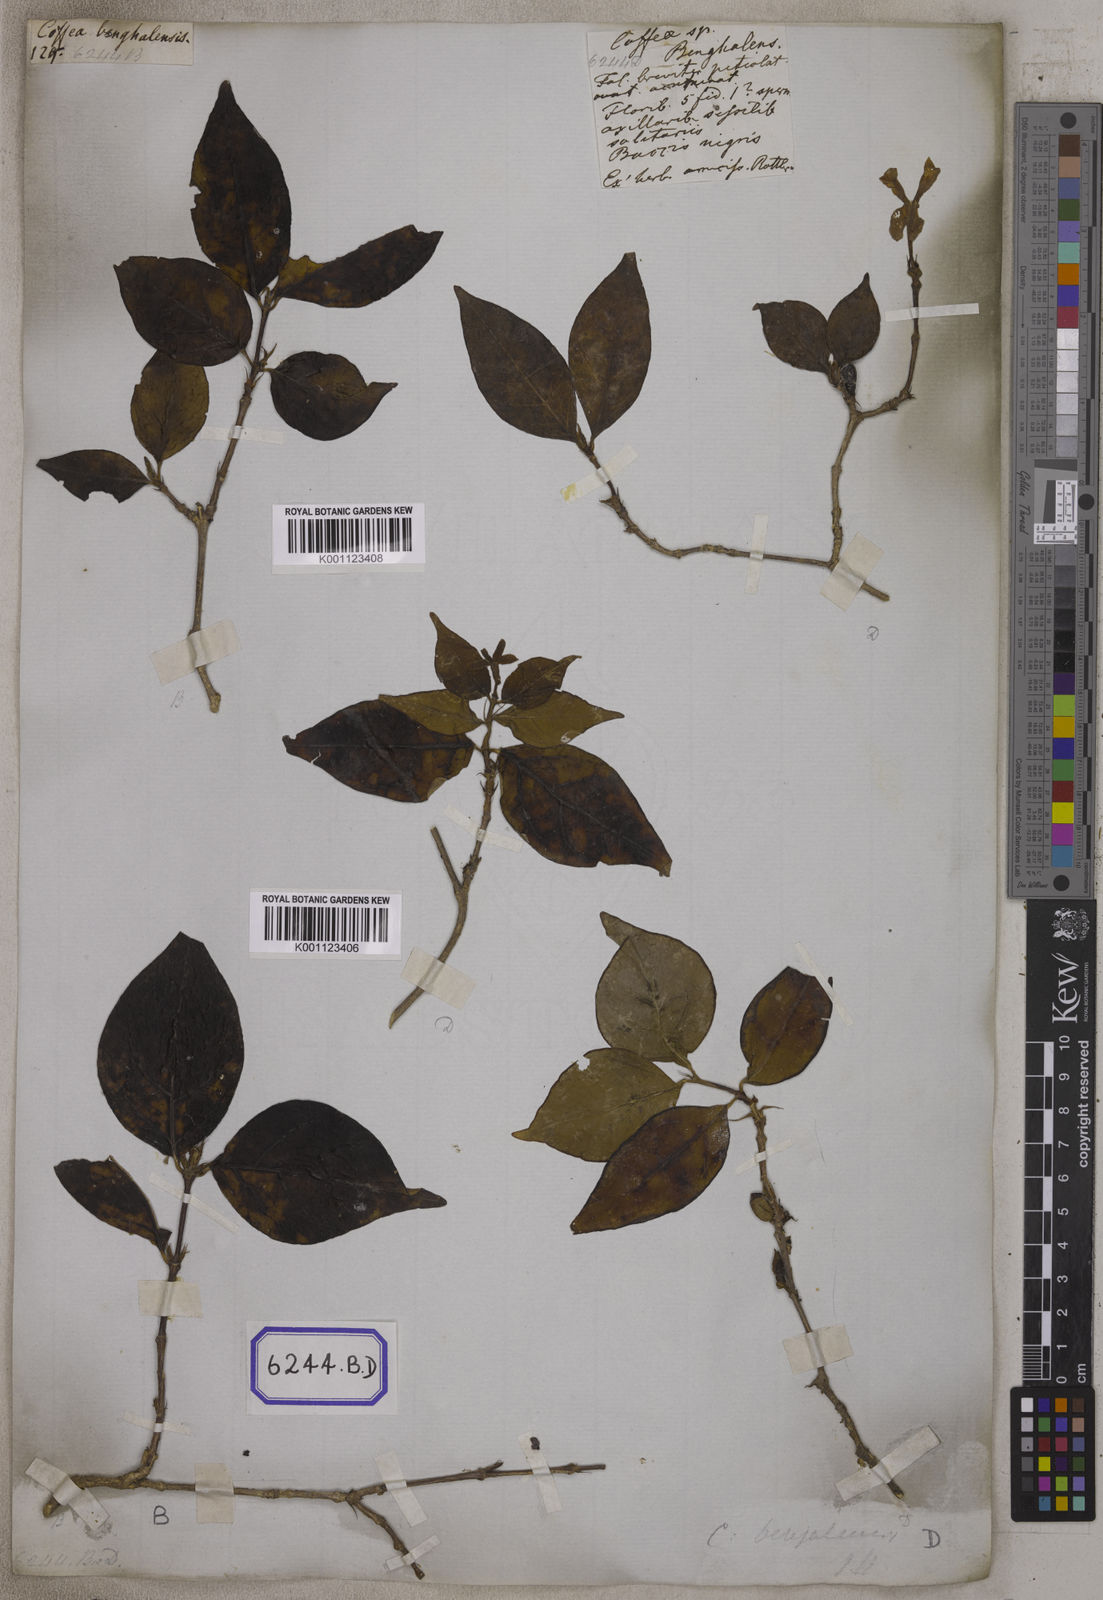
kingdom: Plantae
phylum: Tracheophyta
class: Magnoliopsida
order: Gentianales
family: Rubiaceae
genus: Coffea
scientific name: Coffea
